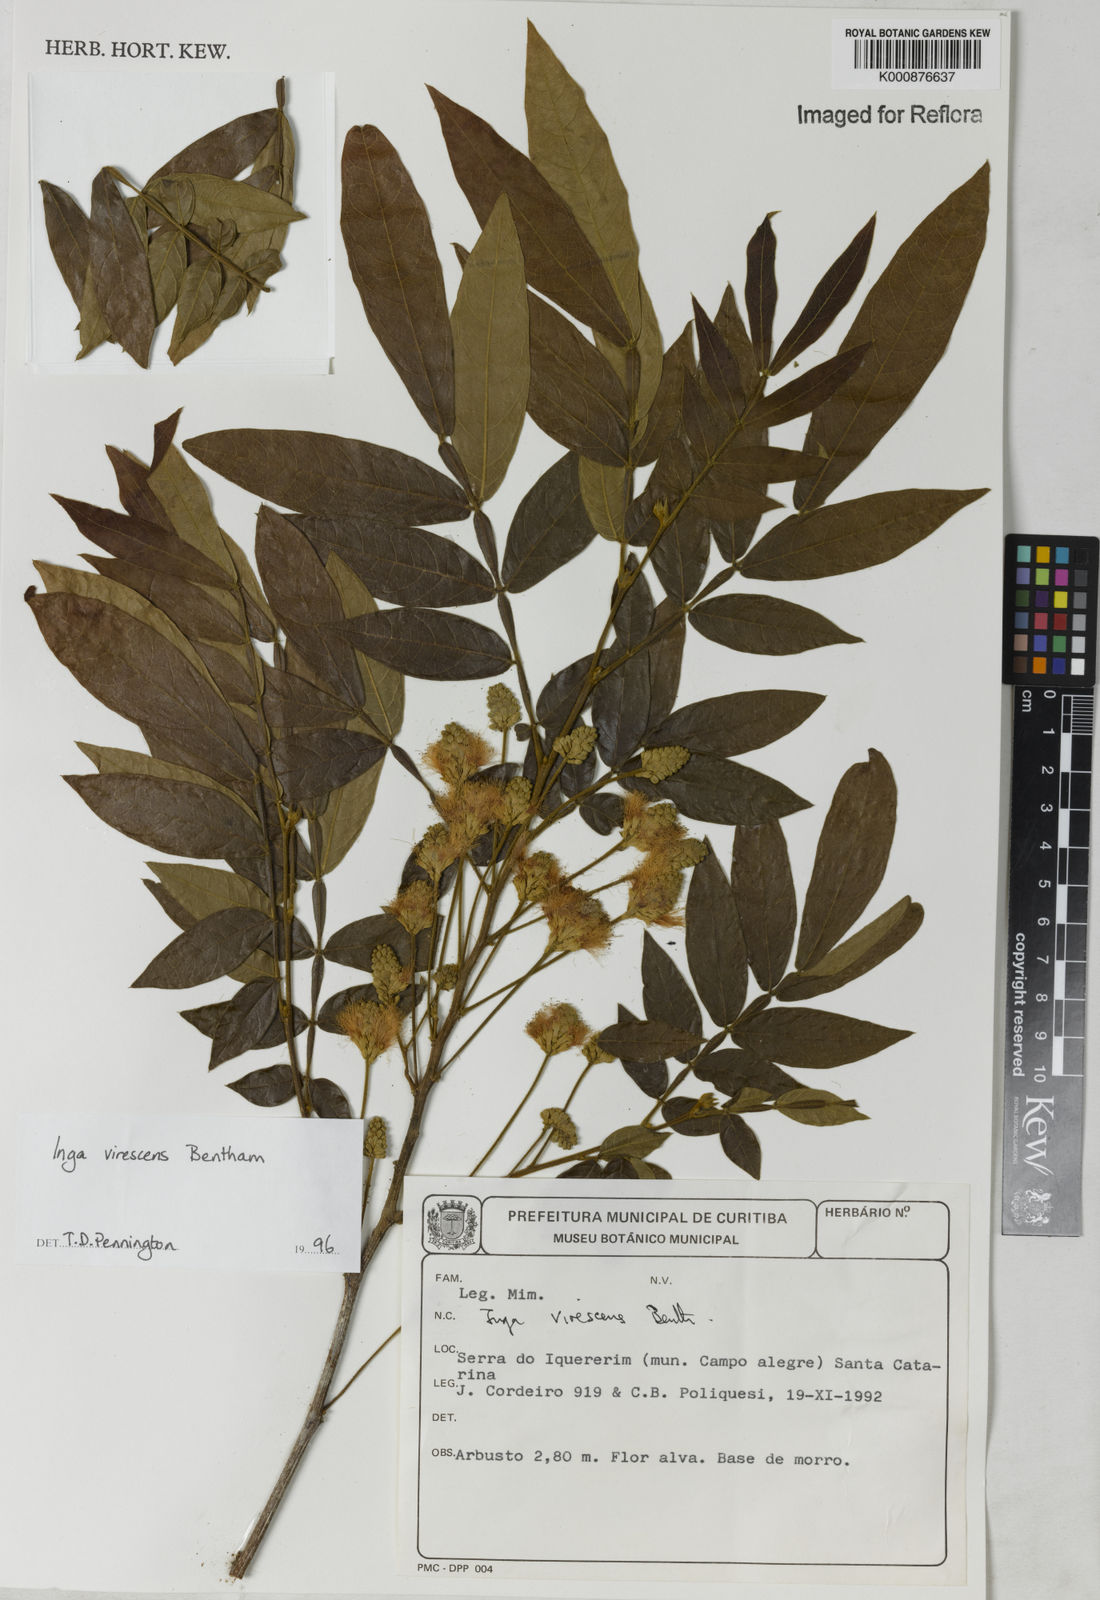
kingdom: Plantae
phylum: Tracheophyta
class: Magnoliopsida
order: Fabales
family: Fabaceae
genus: Inga
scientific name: Inga virescens
